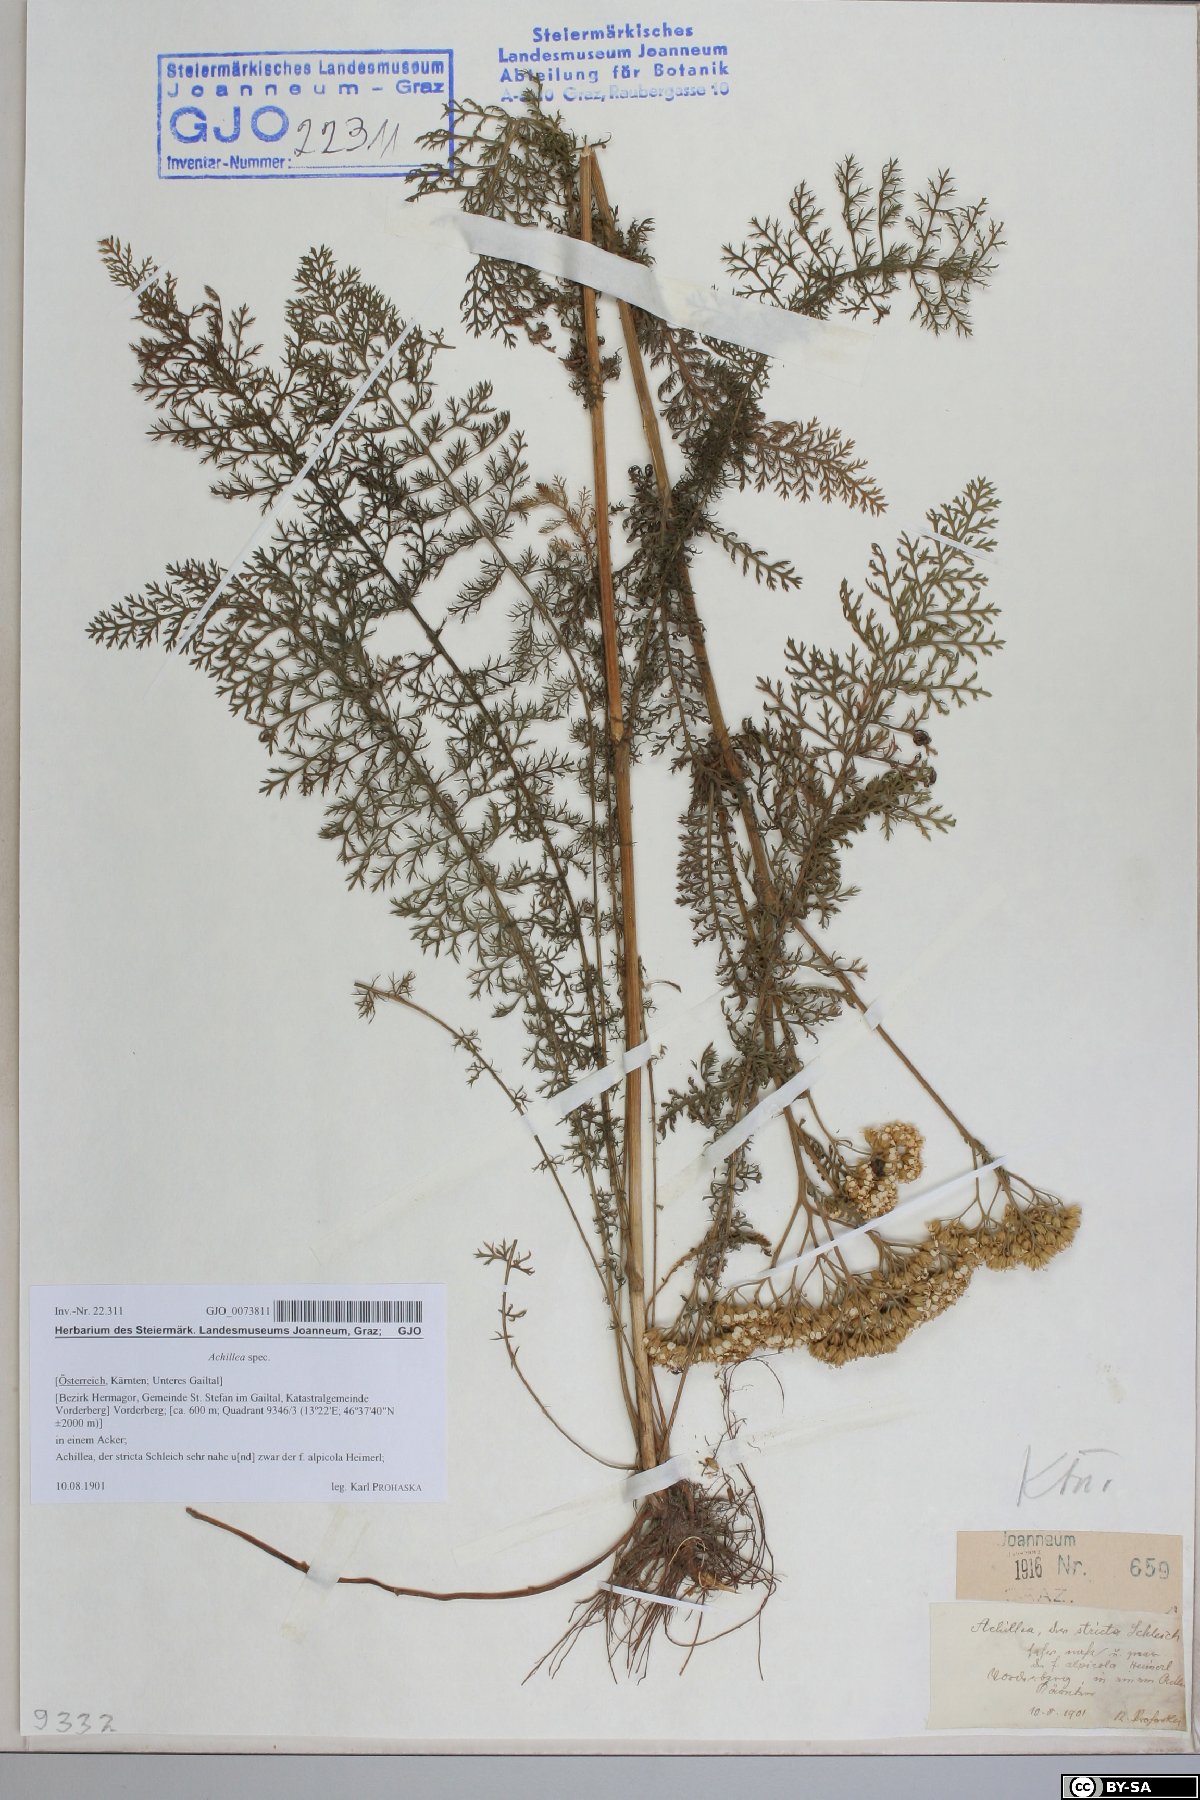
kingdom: Plantae
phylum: Tracheophyta
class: Magnoliopsida
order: Asterales
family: Asteraceae
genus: Achillea
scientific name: Achillea
